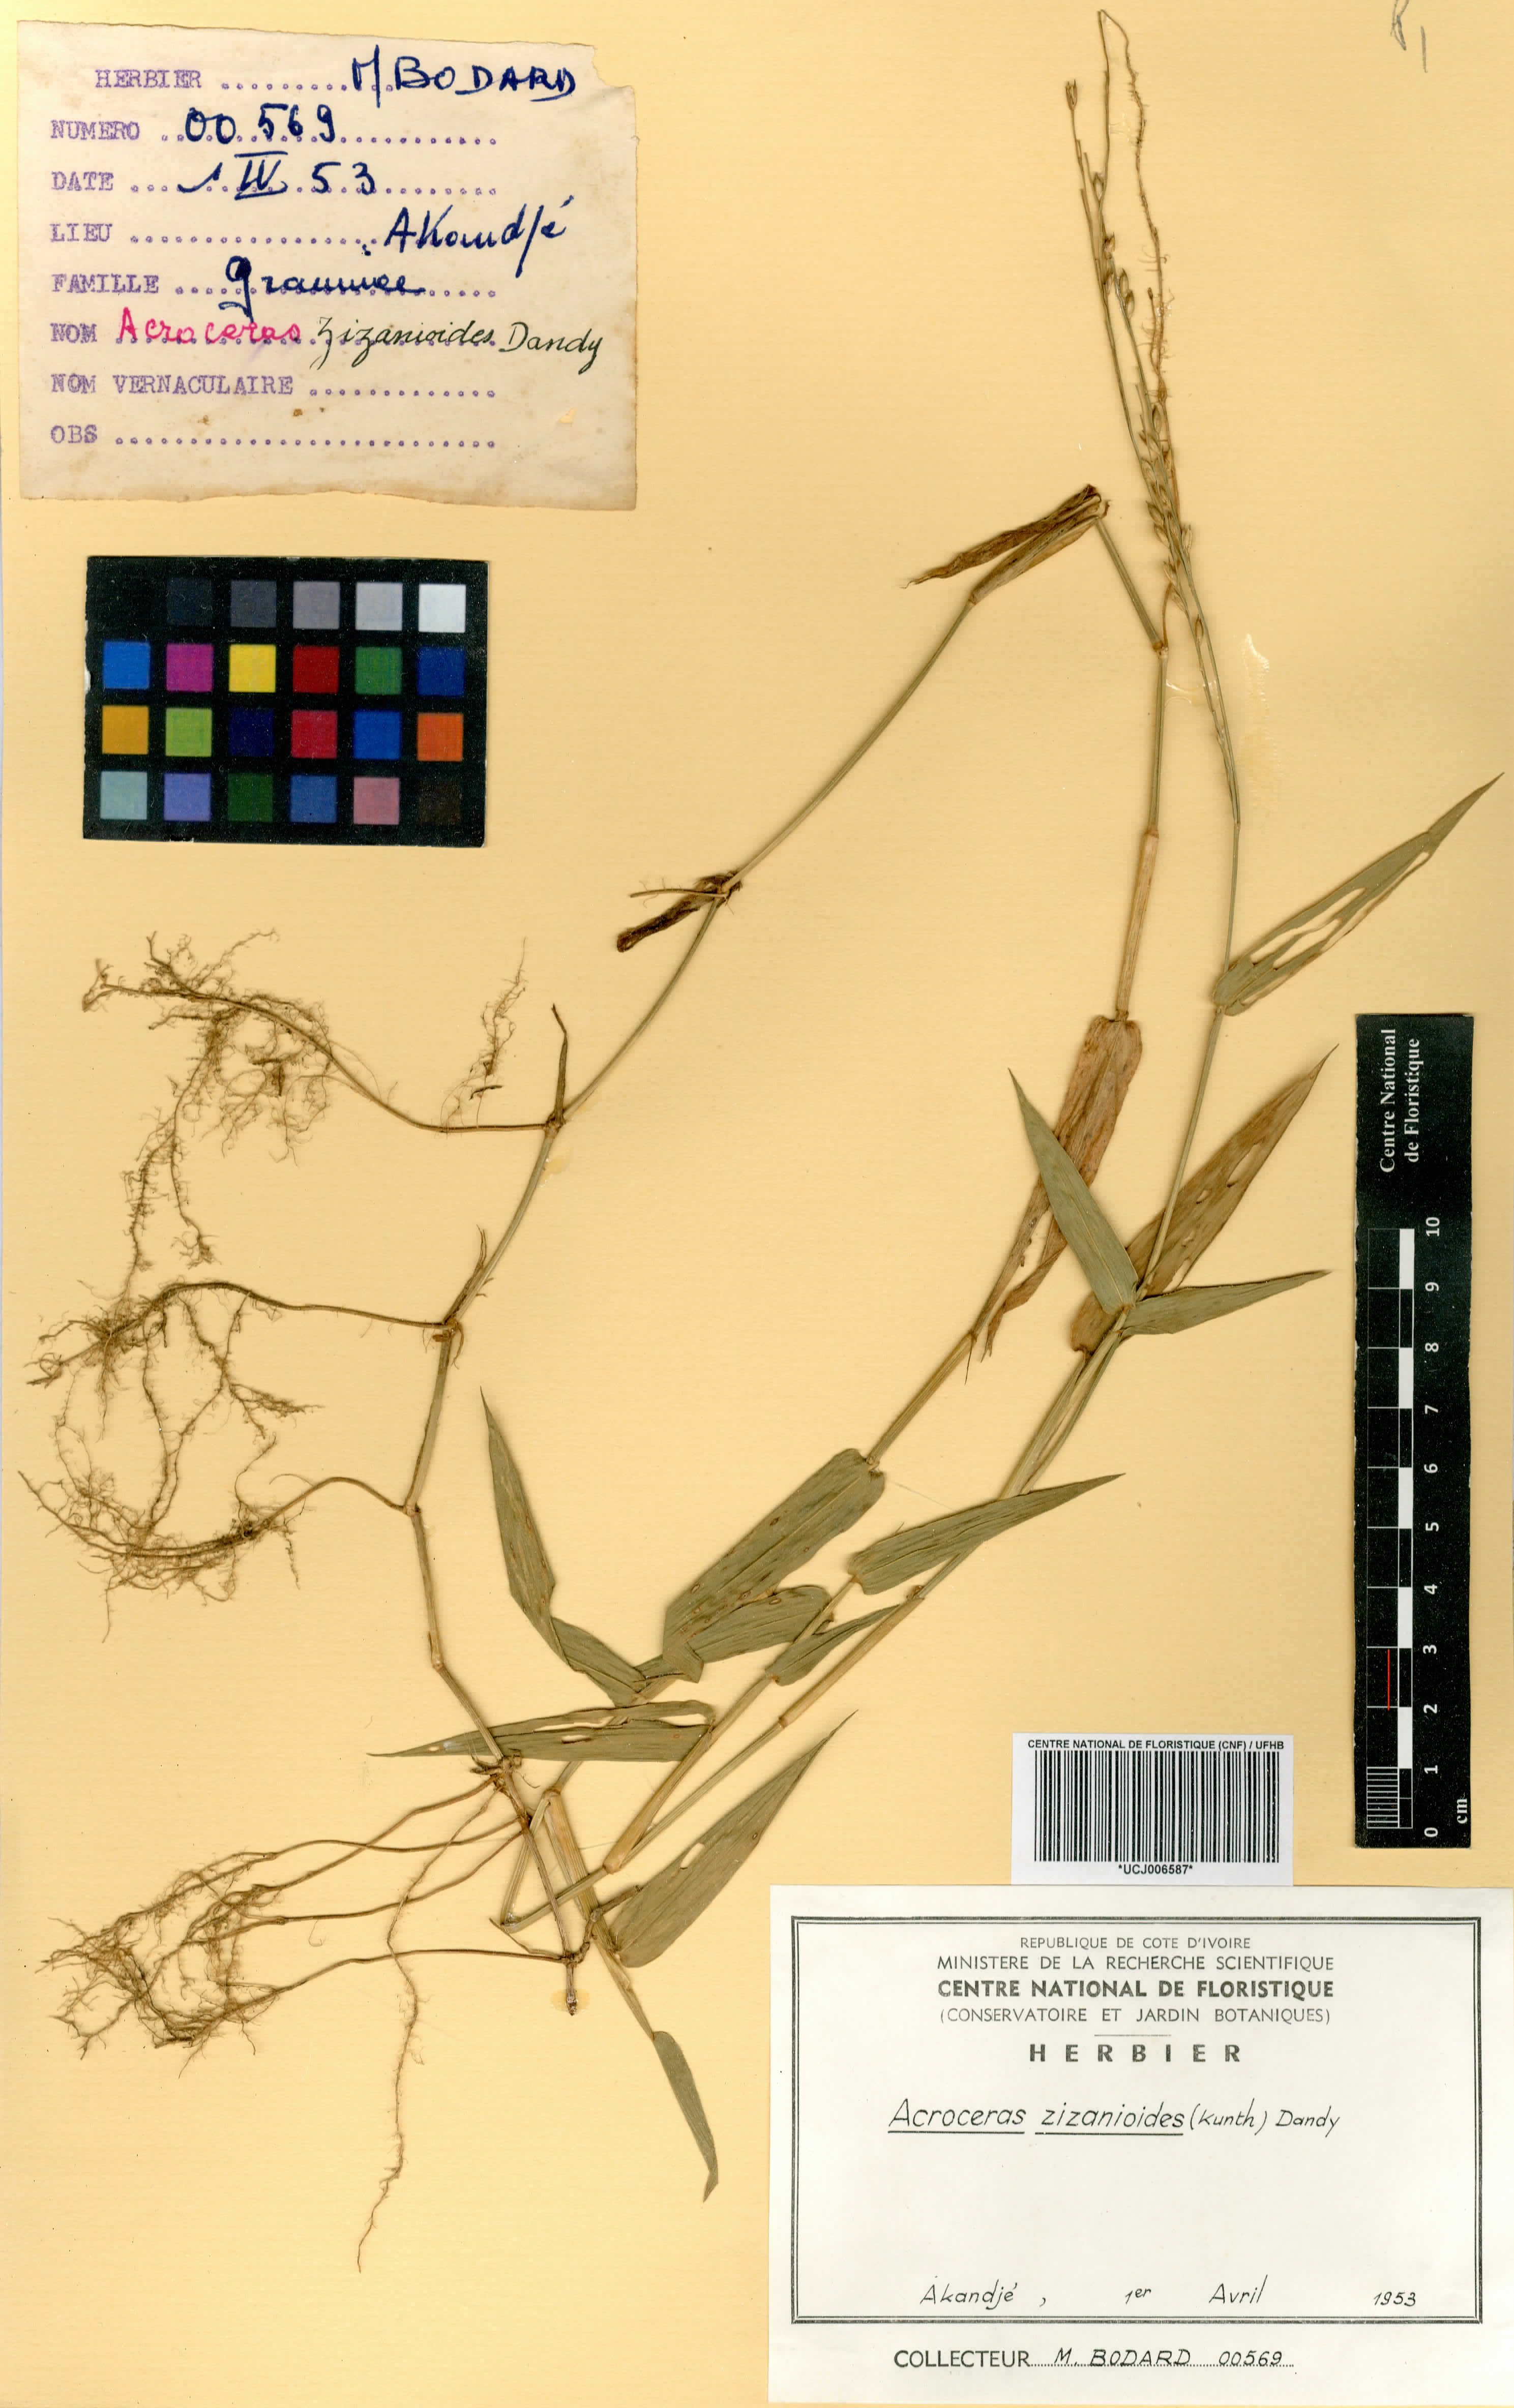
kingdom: Plantae
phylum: Tracheophyta
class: Liliopsida
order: Poales
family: Poaceae
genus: Acroceras
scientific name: Acroceras zizanioides
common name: Oat grass
